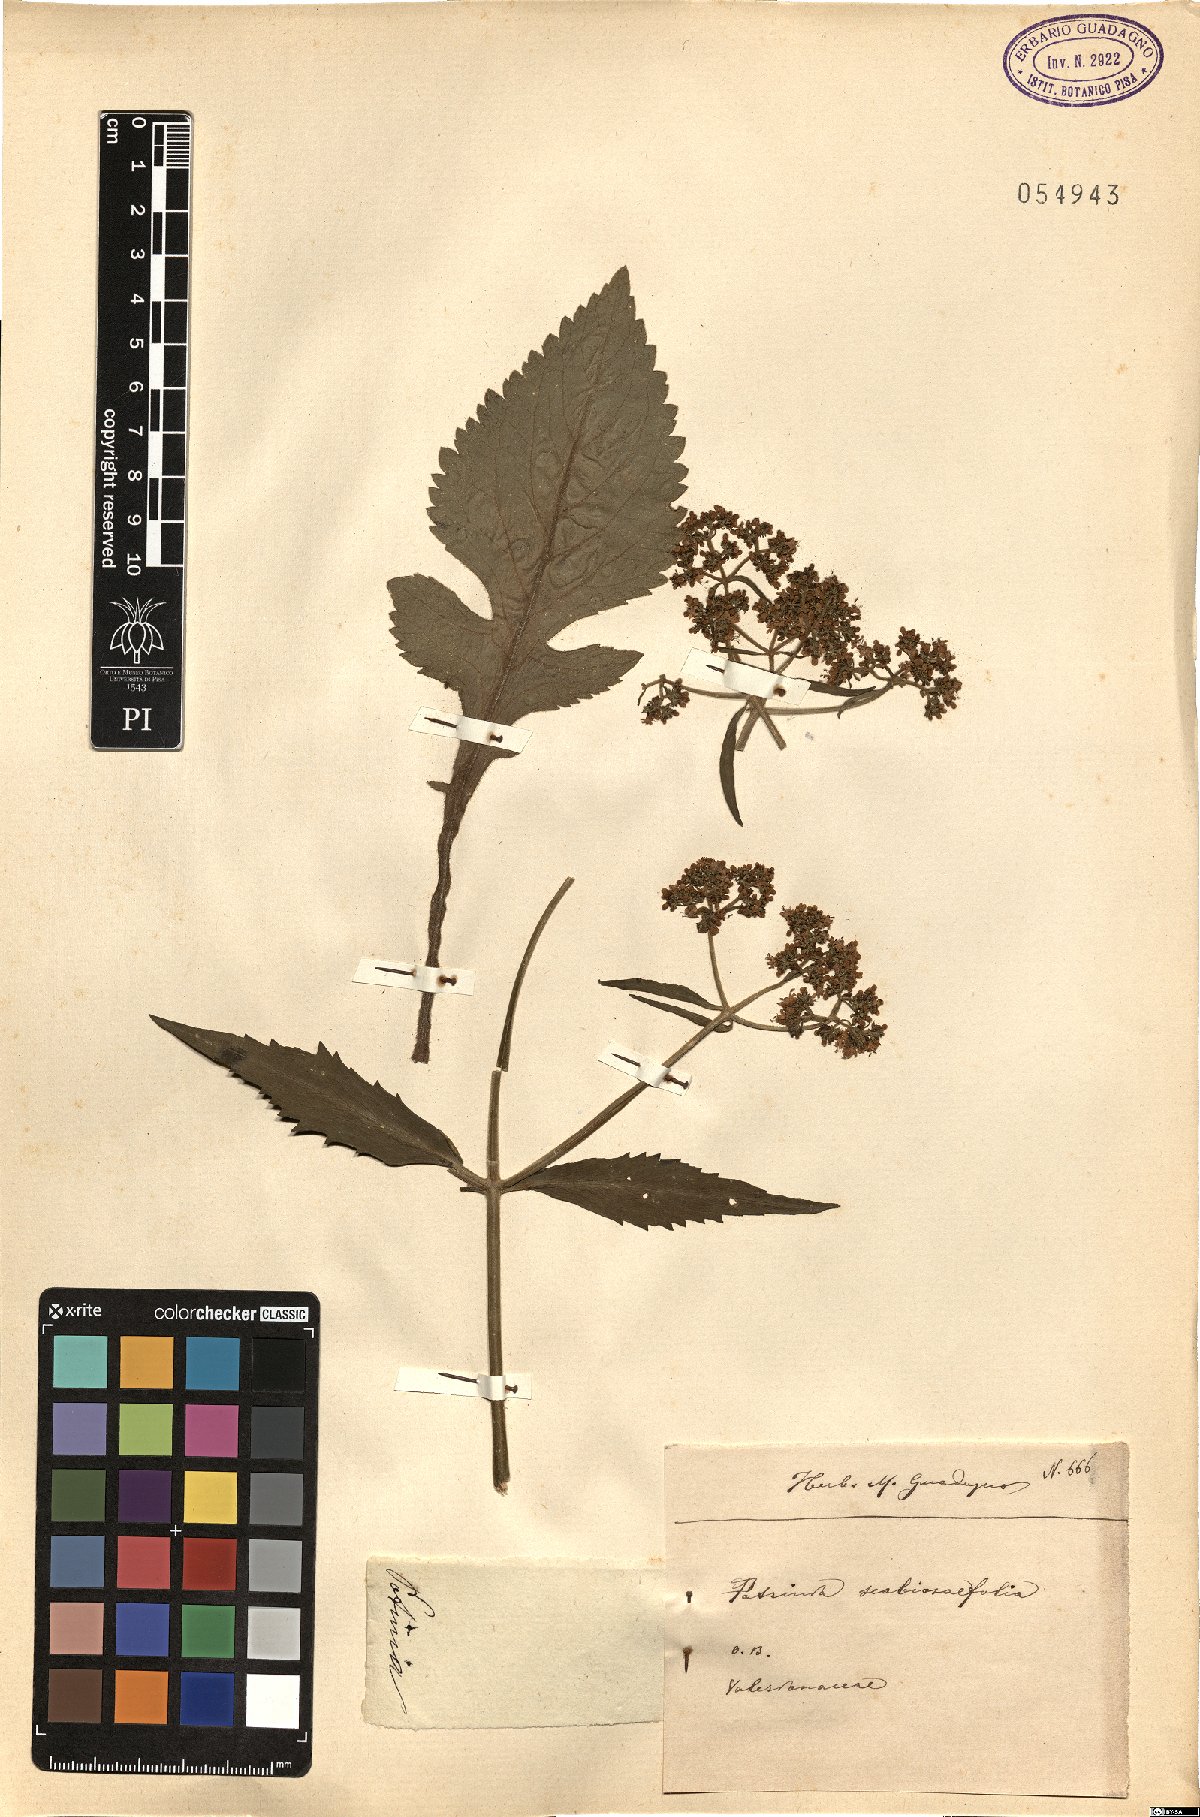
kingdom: Plantae
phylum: Tracheophyta
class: Magnoliopsida
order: Dipsacales
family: Caprifoliaceae
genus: Patrinia
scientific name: Patrinia scabiosifolia
